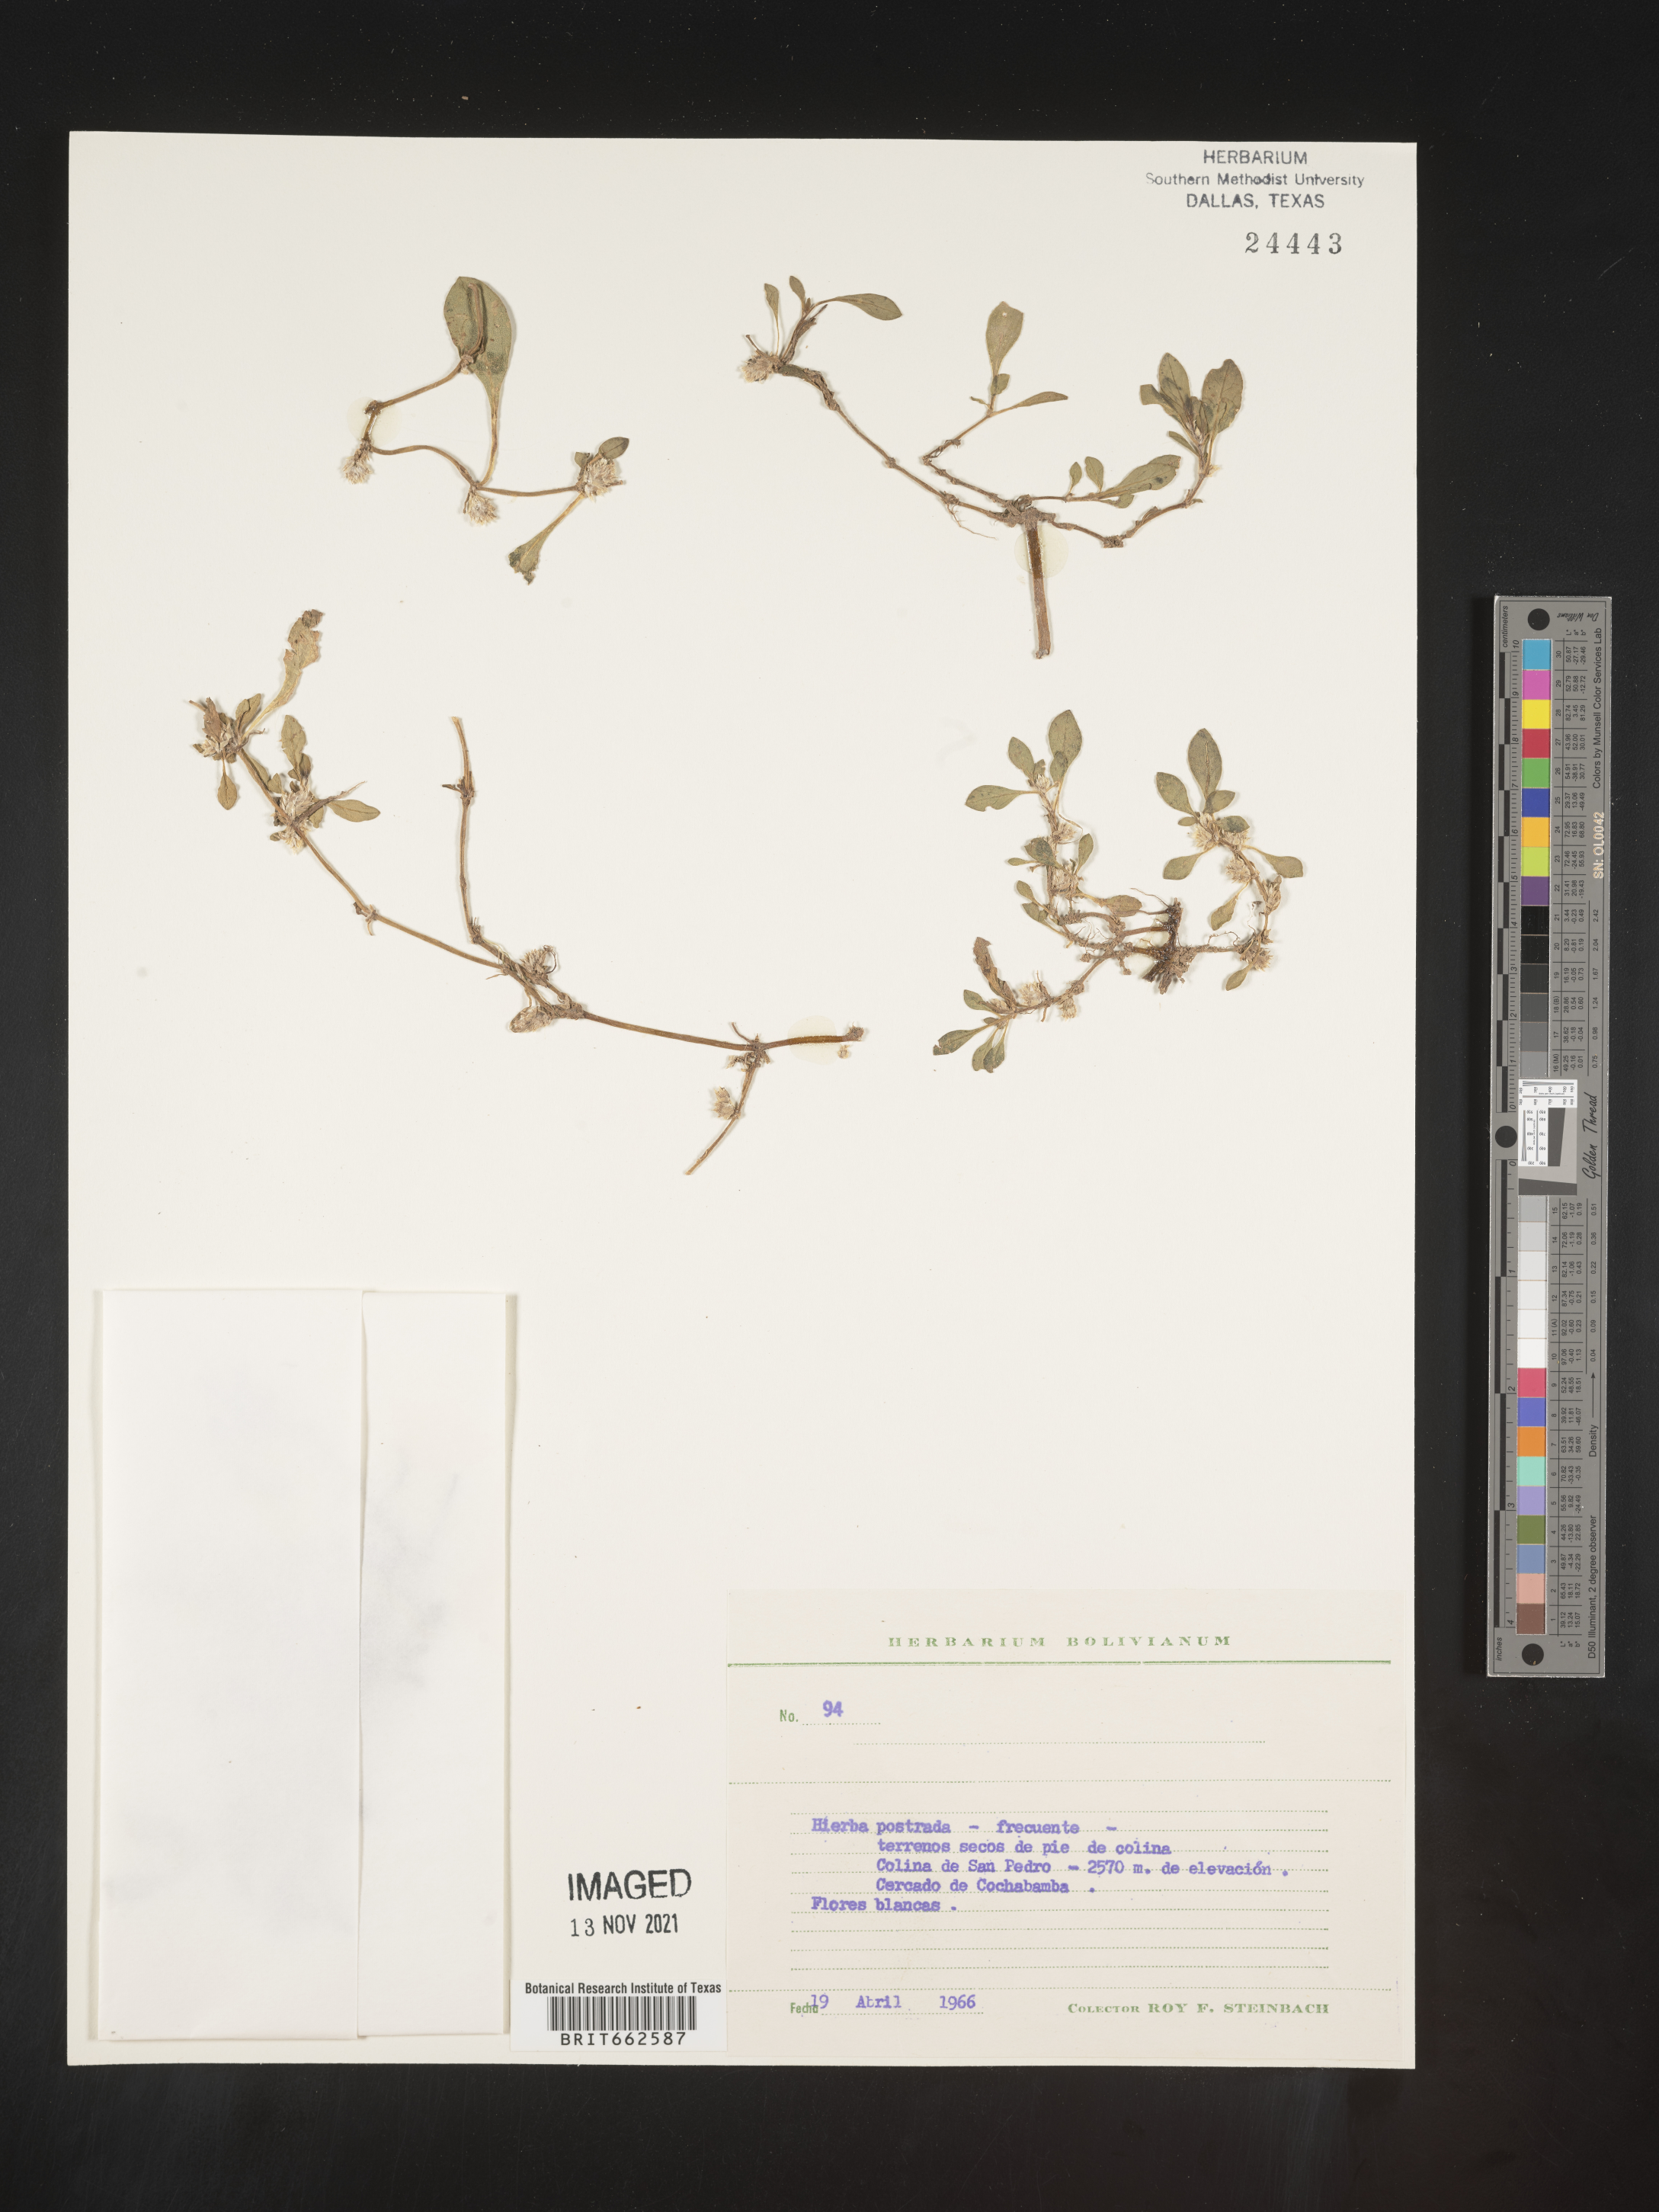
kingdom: Plantae
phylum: Tracheophyta
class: Magnoliopsida
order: Caryophyllales
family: Amaranthaceae
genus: Alternanthera
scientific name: Alternanthera
